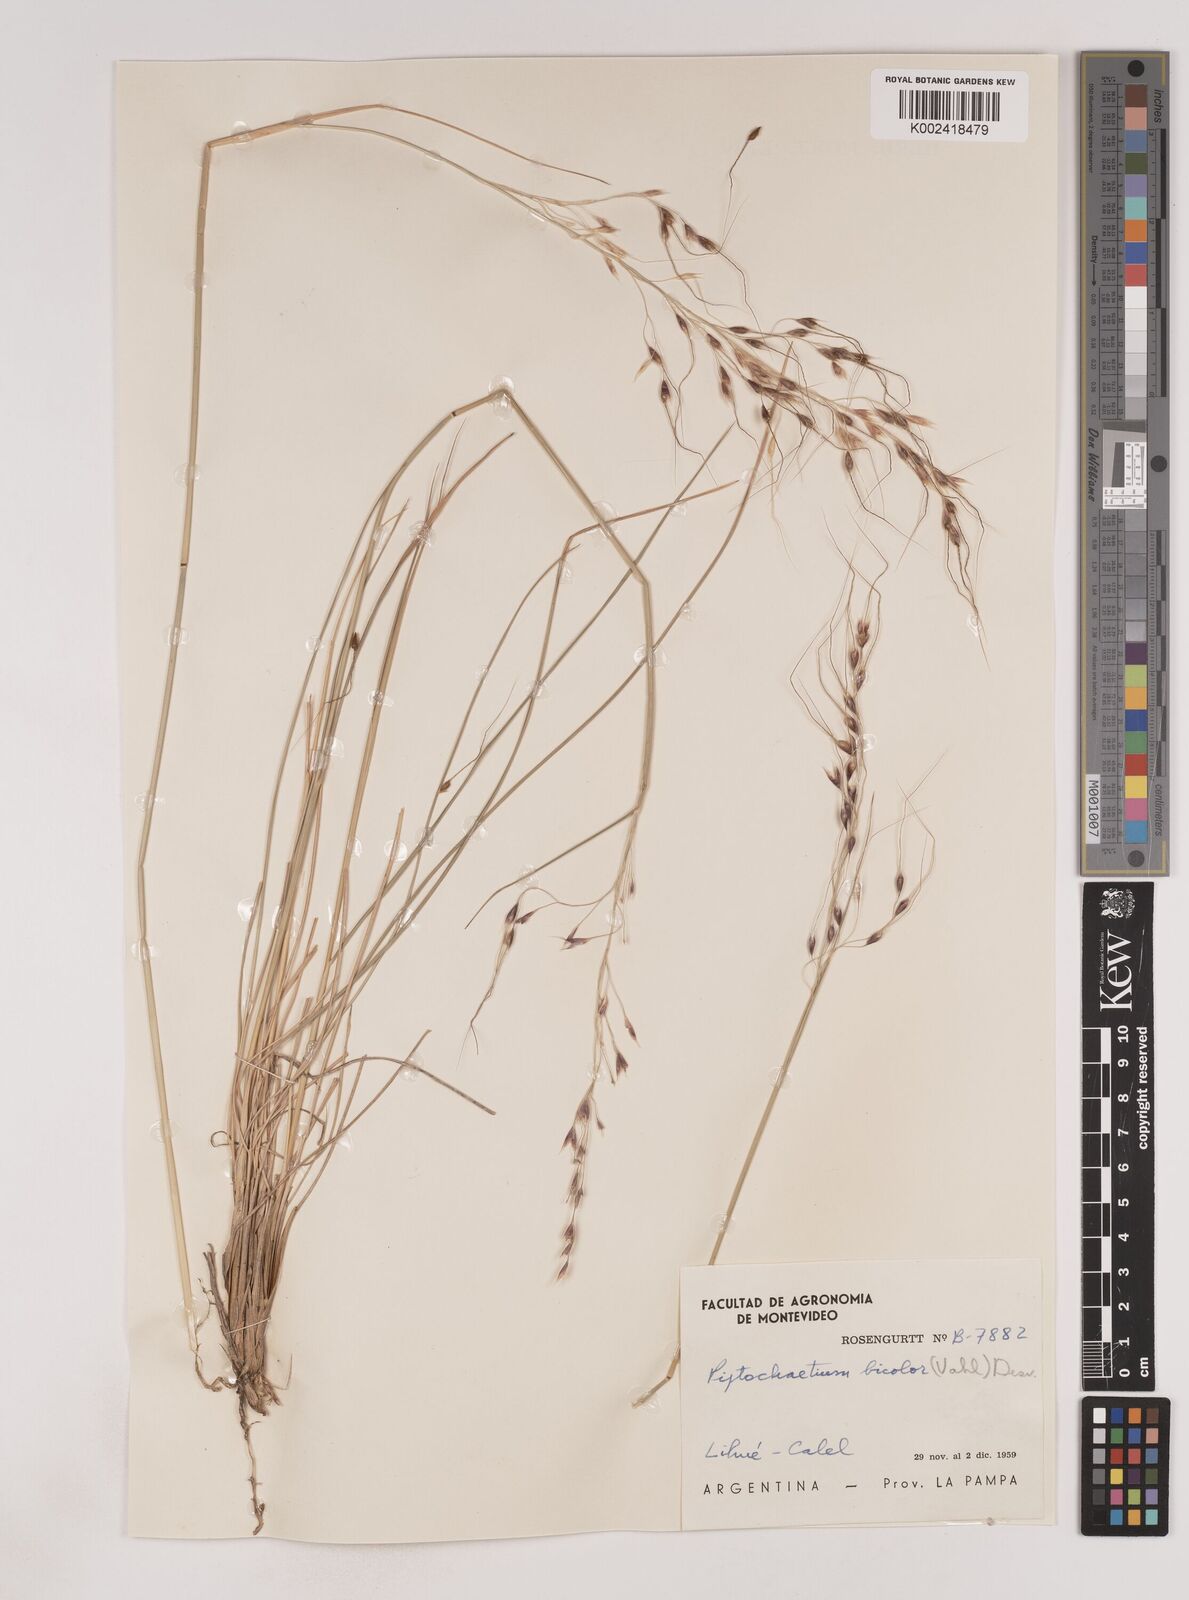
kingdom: Plantae
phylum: Tracheophyta
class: Liliopsida
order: Poales
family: Poaceae
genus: Piptochaetium
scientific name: Piptochaetium bicolor
